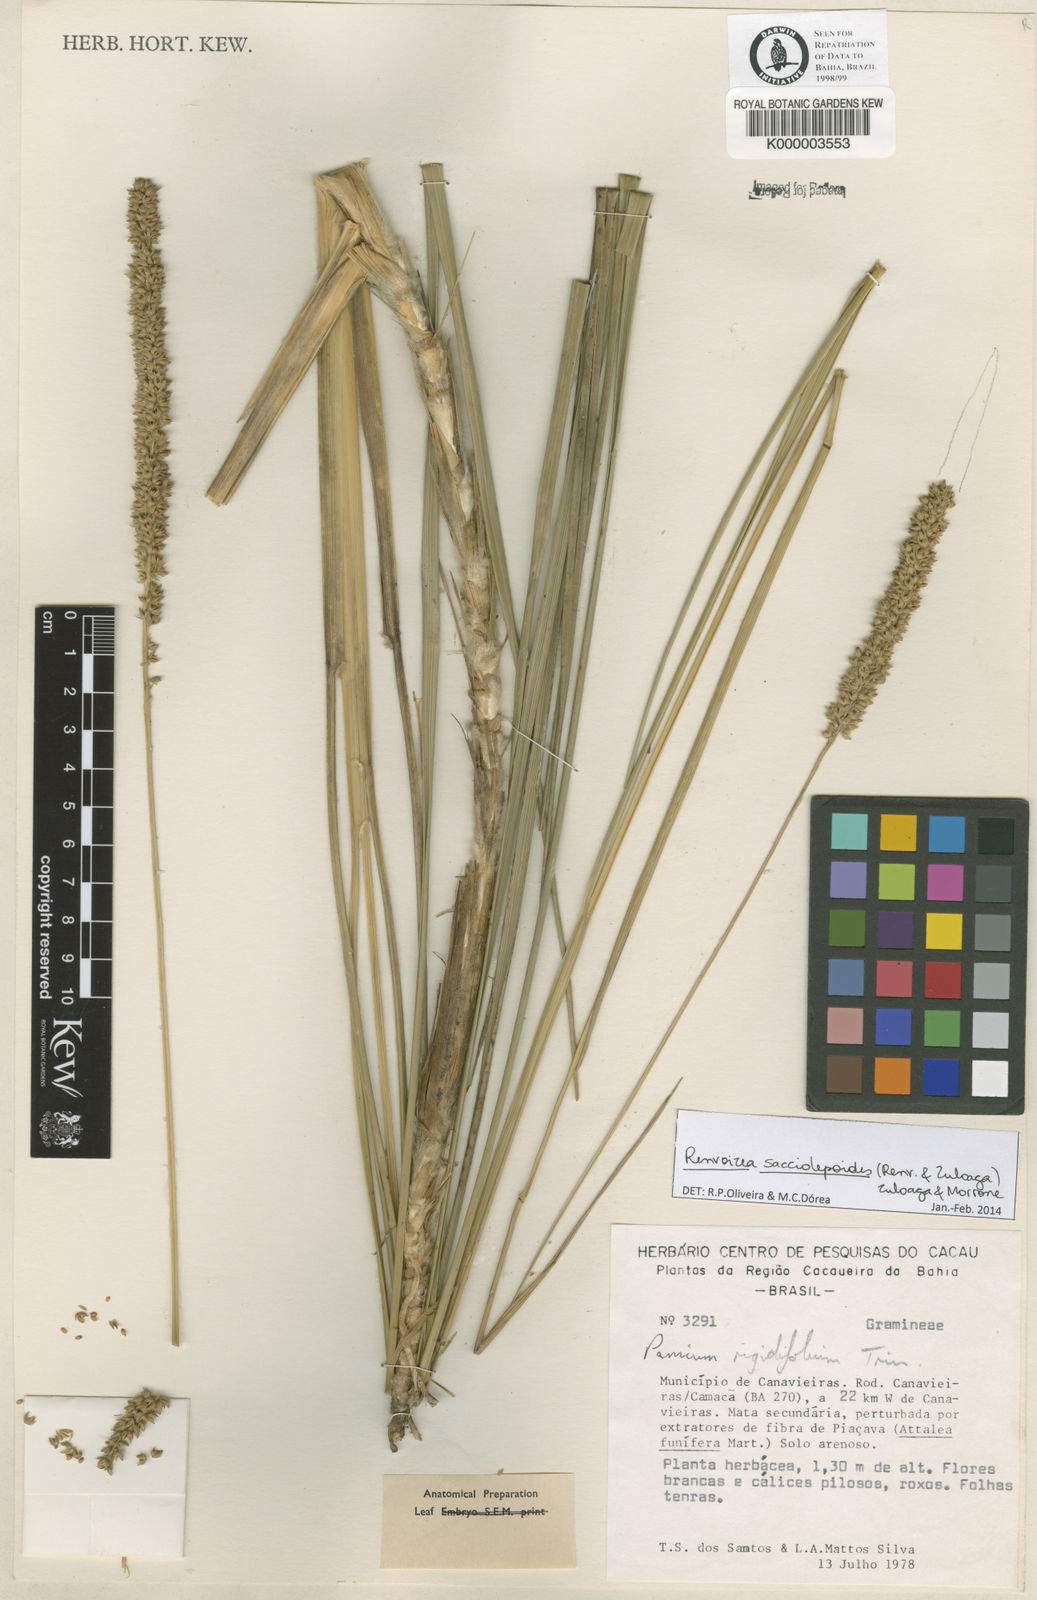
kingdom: Plantae
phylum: Tracheophyta
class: Liliopsida
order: Poales
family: Poaceae
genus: Renvoizea
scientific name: Renvoizea sacciolepoides
